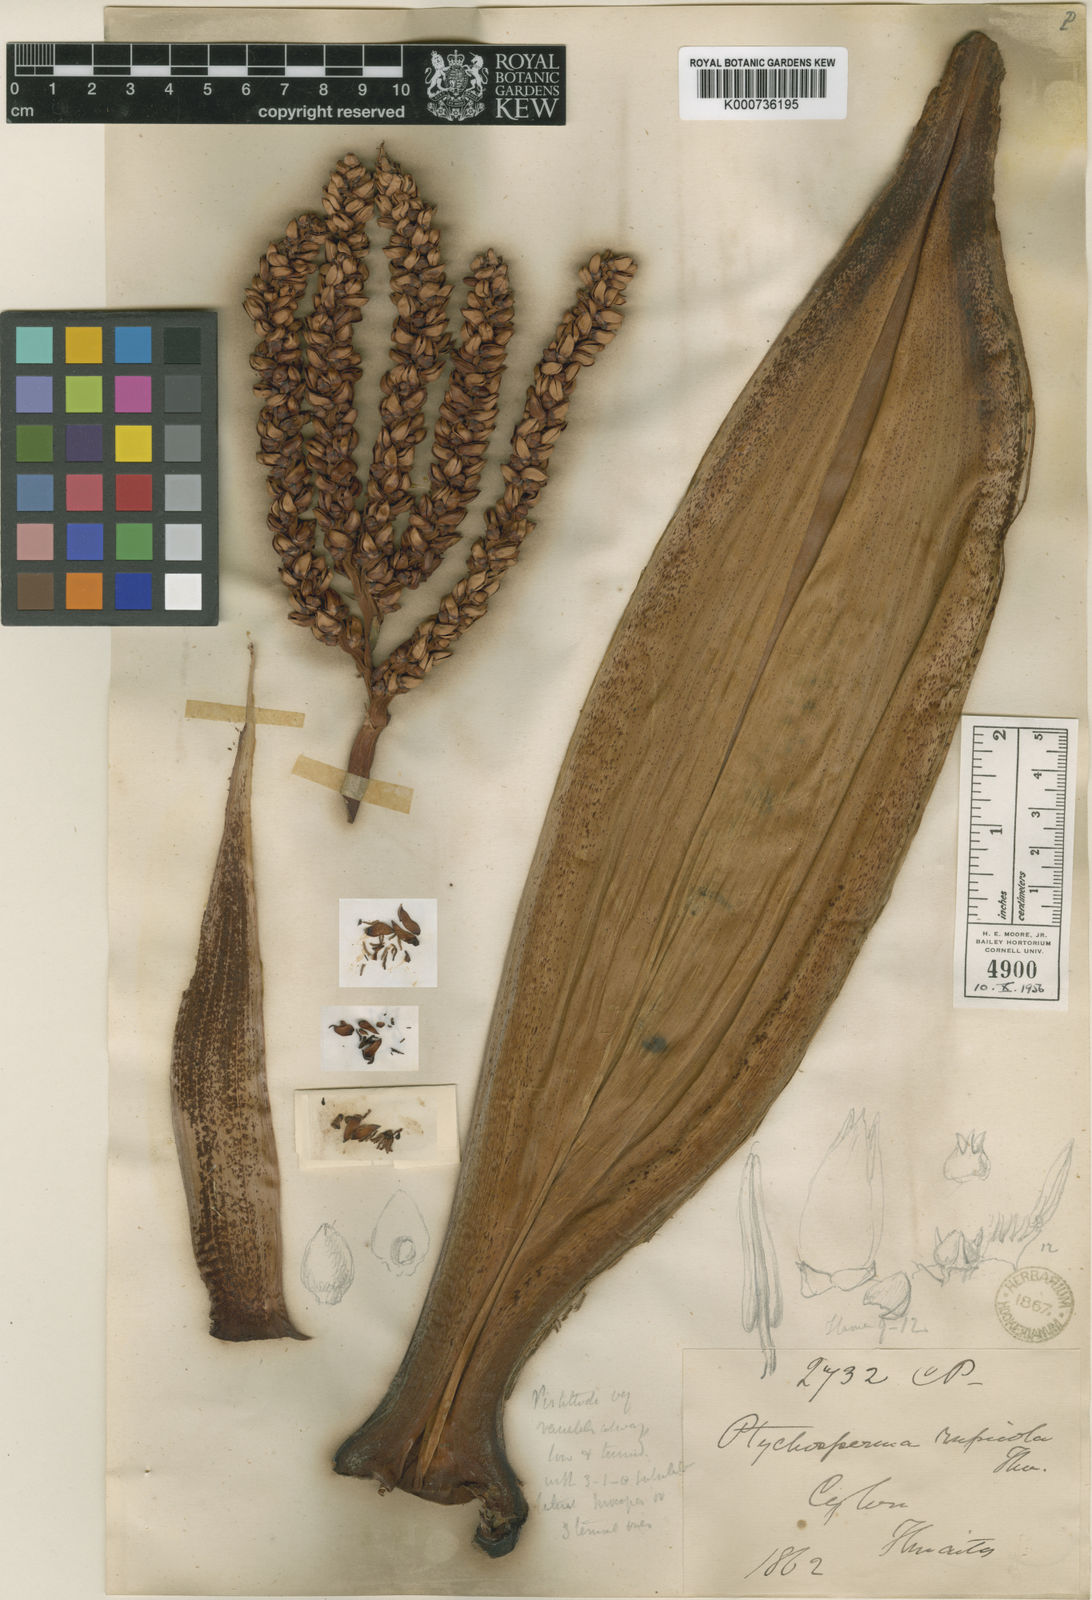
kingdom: Plantae
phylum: Tracheophyta
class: Liliopsida
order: Arecales
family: Arecaceae
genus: Loxococcus
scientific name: Loxococcus rupicola
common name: Crook-fruit palm
